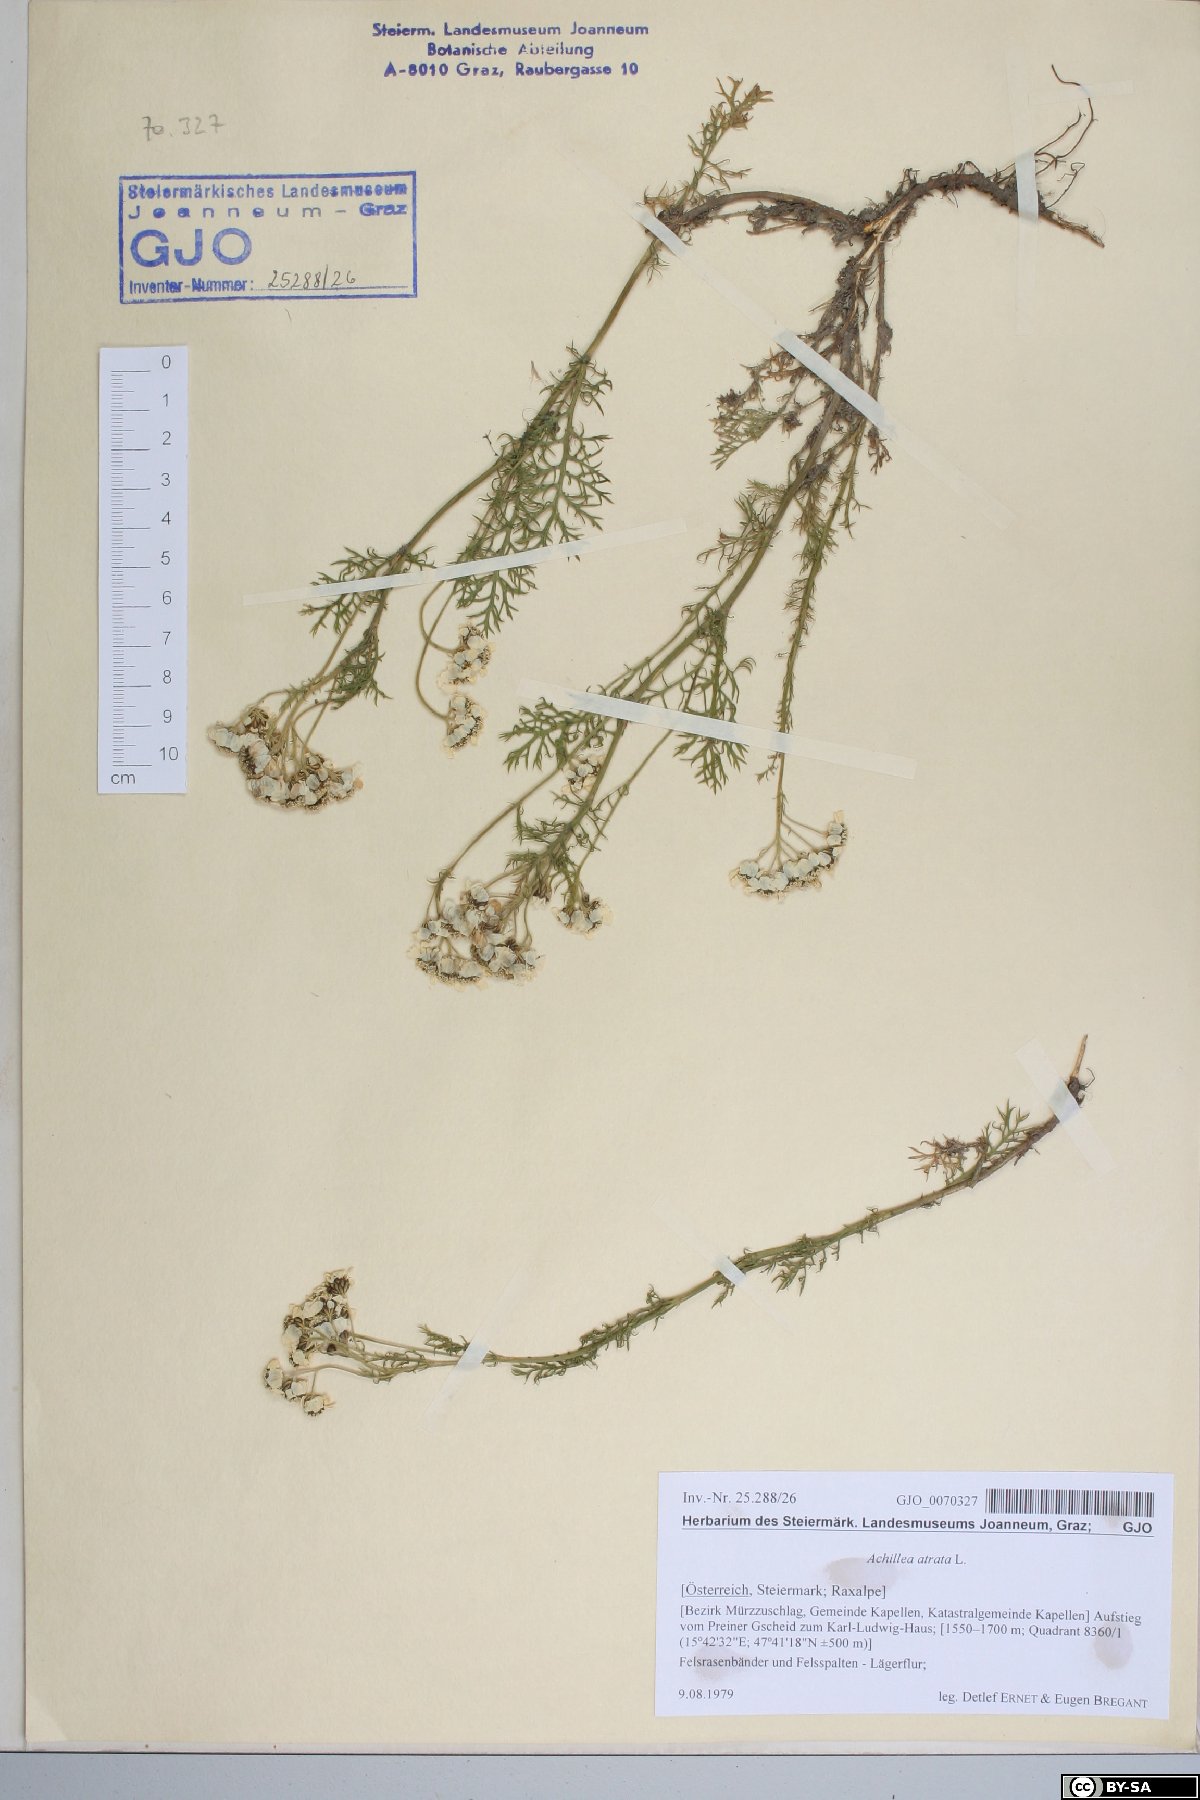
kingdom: Plantae
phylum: Tracheophyta
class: Magnoliopsida
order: Asterales
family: Asteraceae
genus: Achillea
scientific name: Achillea atrata
